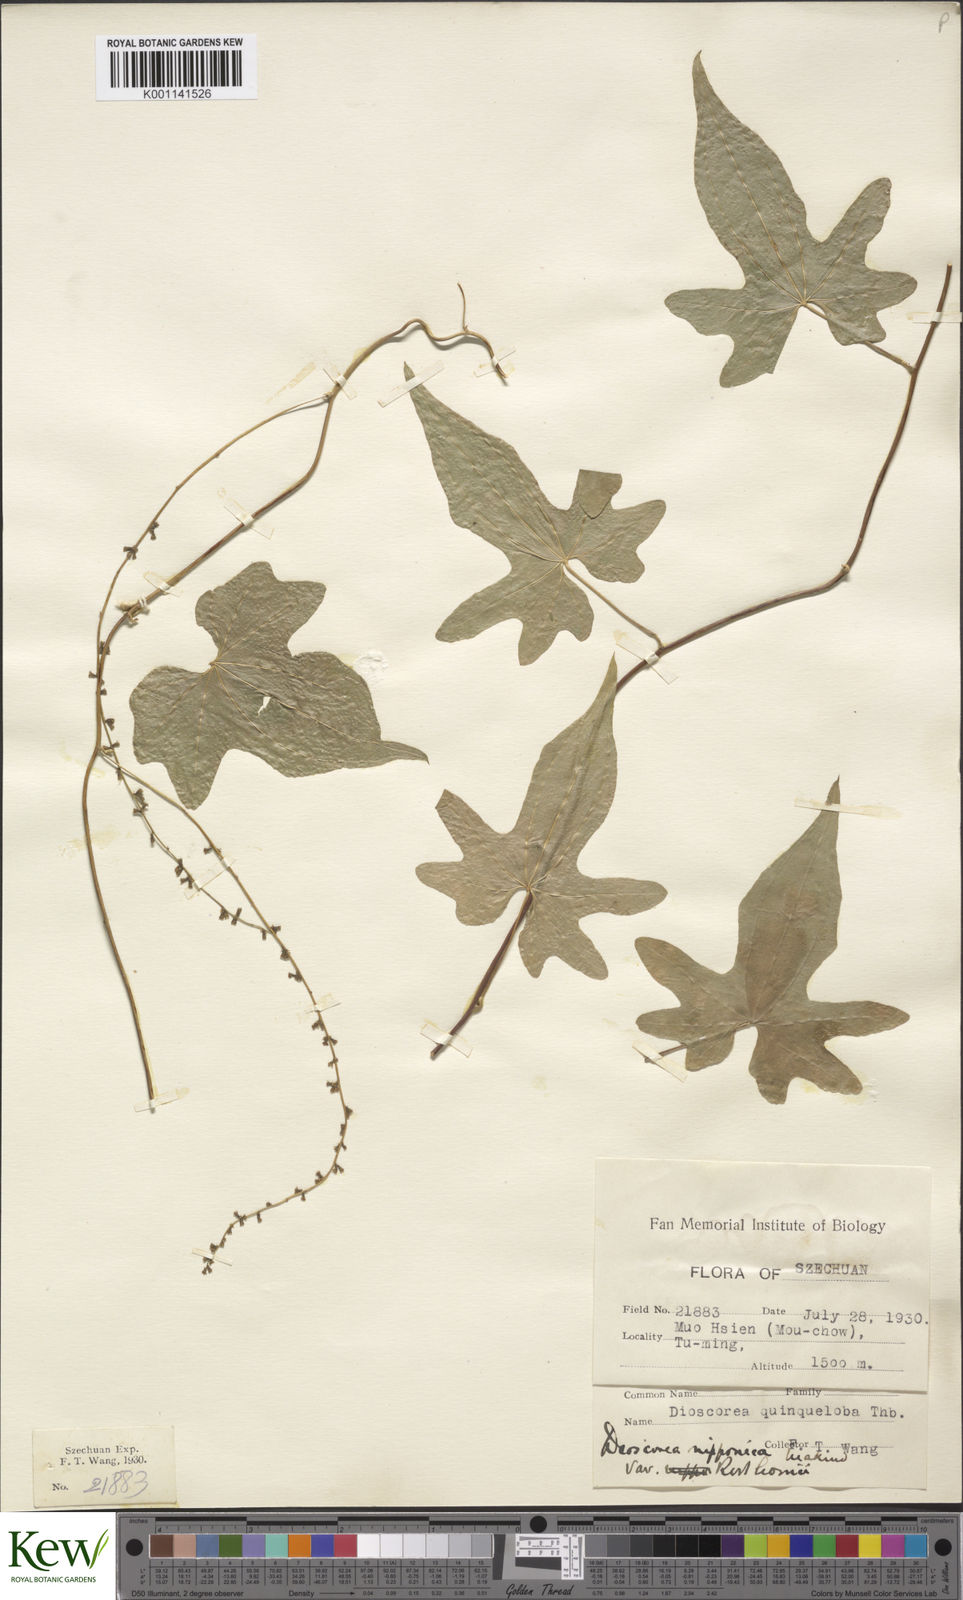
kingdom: Plantae
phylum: Tracheophyta
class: Liliopsida
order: Dioscoreales
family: Dioscoreaceae
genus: Dioscorea
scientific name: Dioscorea nipponica
